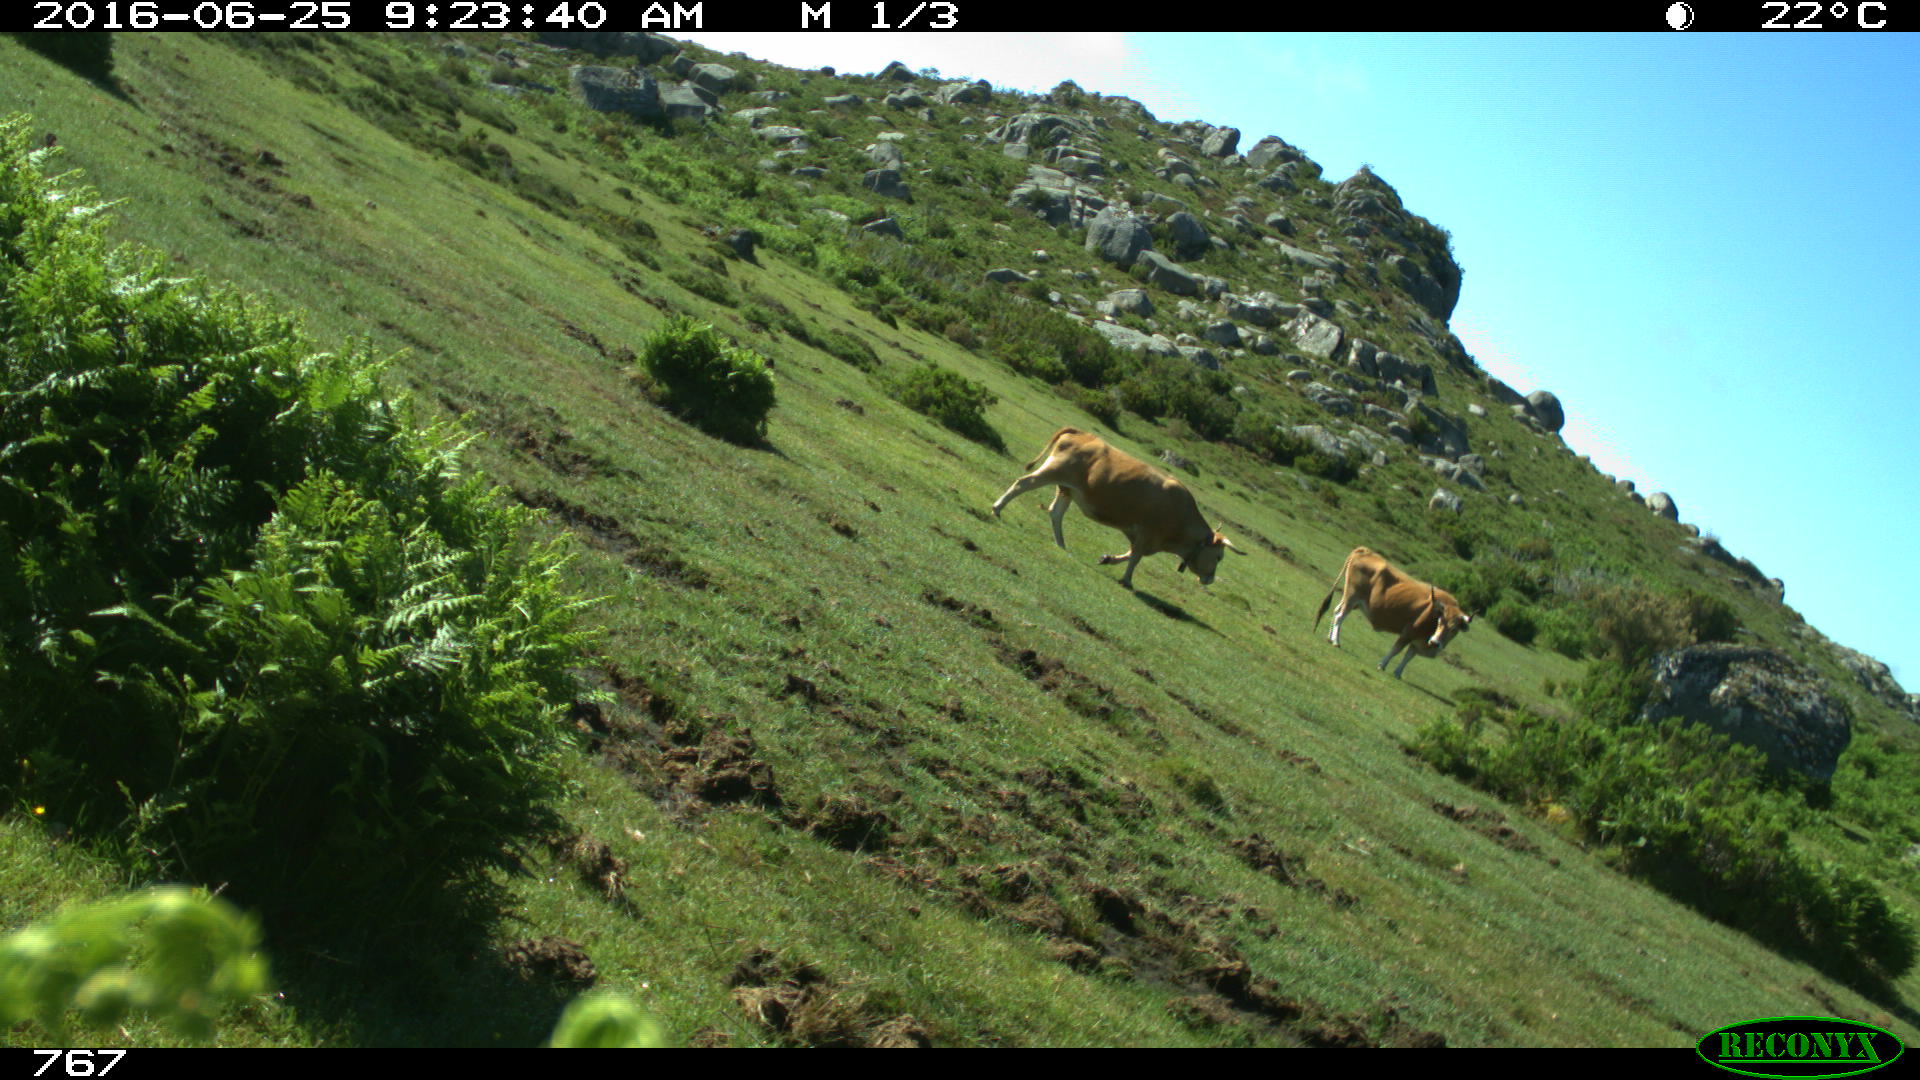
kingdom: Animalia
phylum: Chordata
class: Mammalia
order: Artiodactyla
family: Bovidae
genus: Bos
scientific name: Bos taurus
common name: Domesticated cattle
